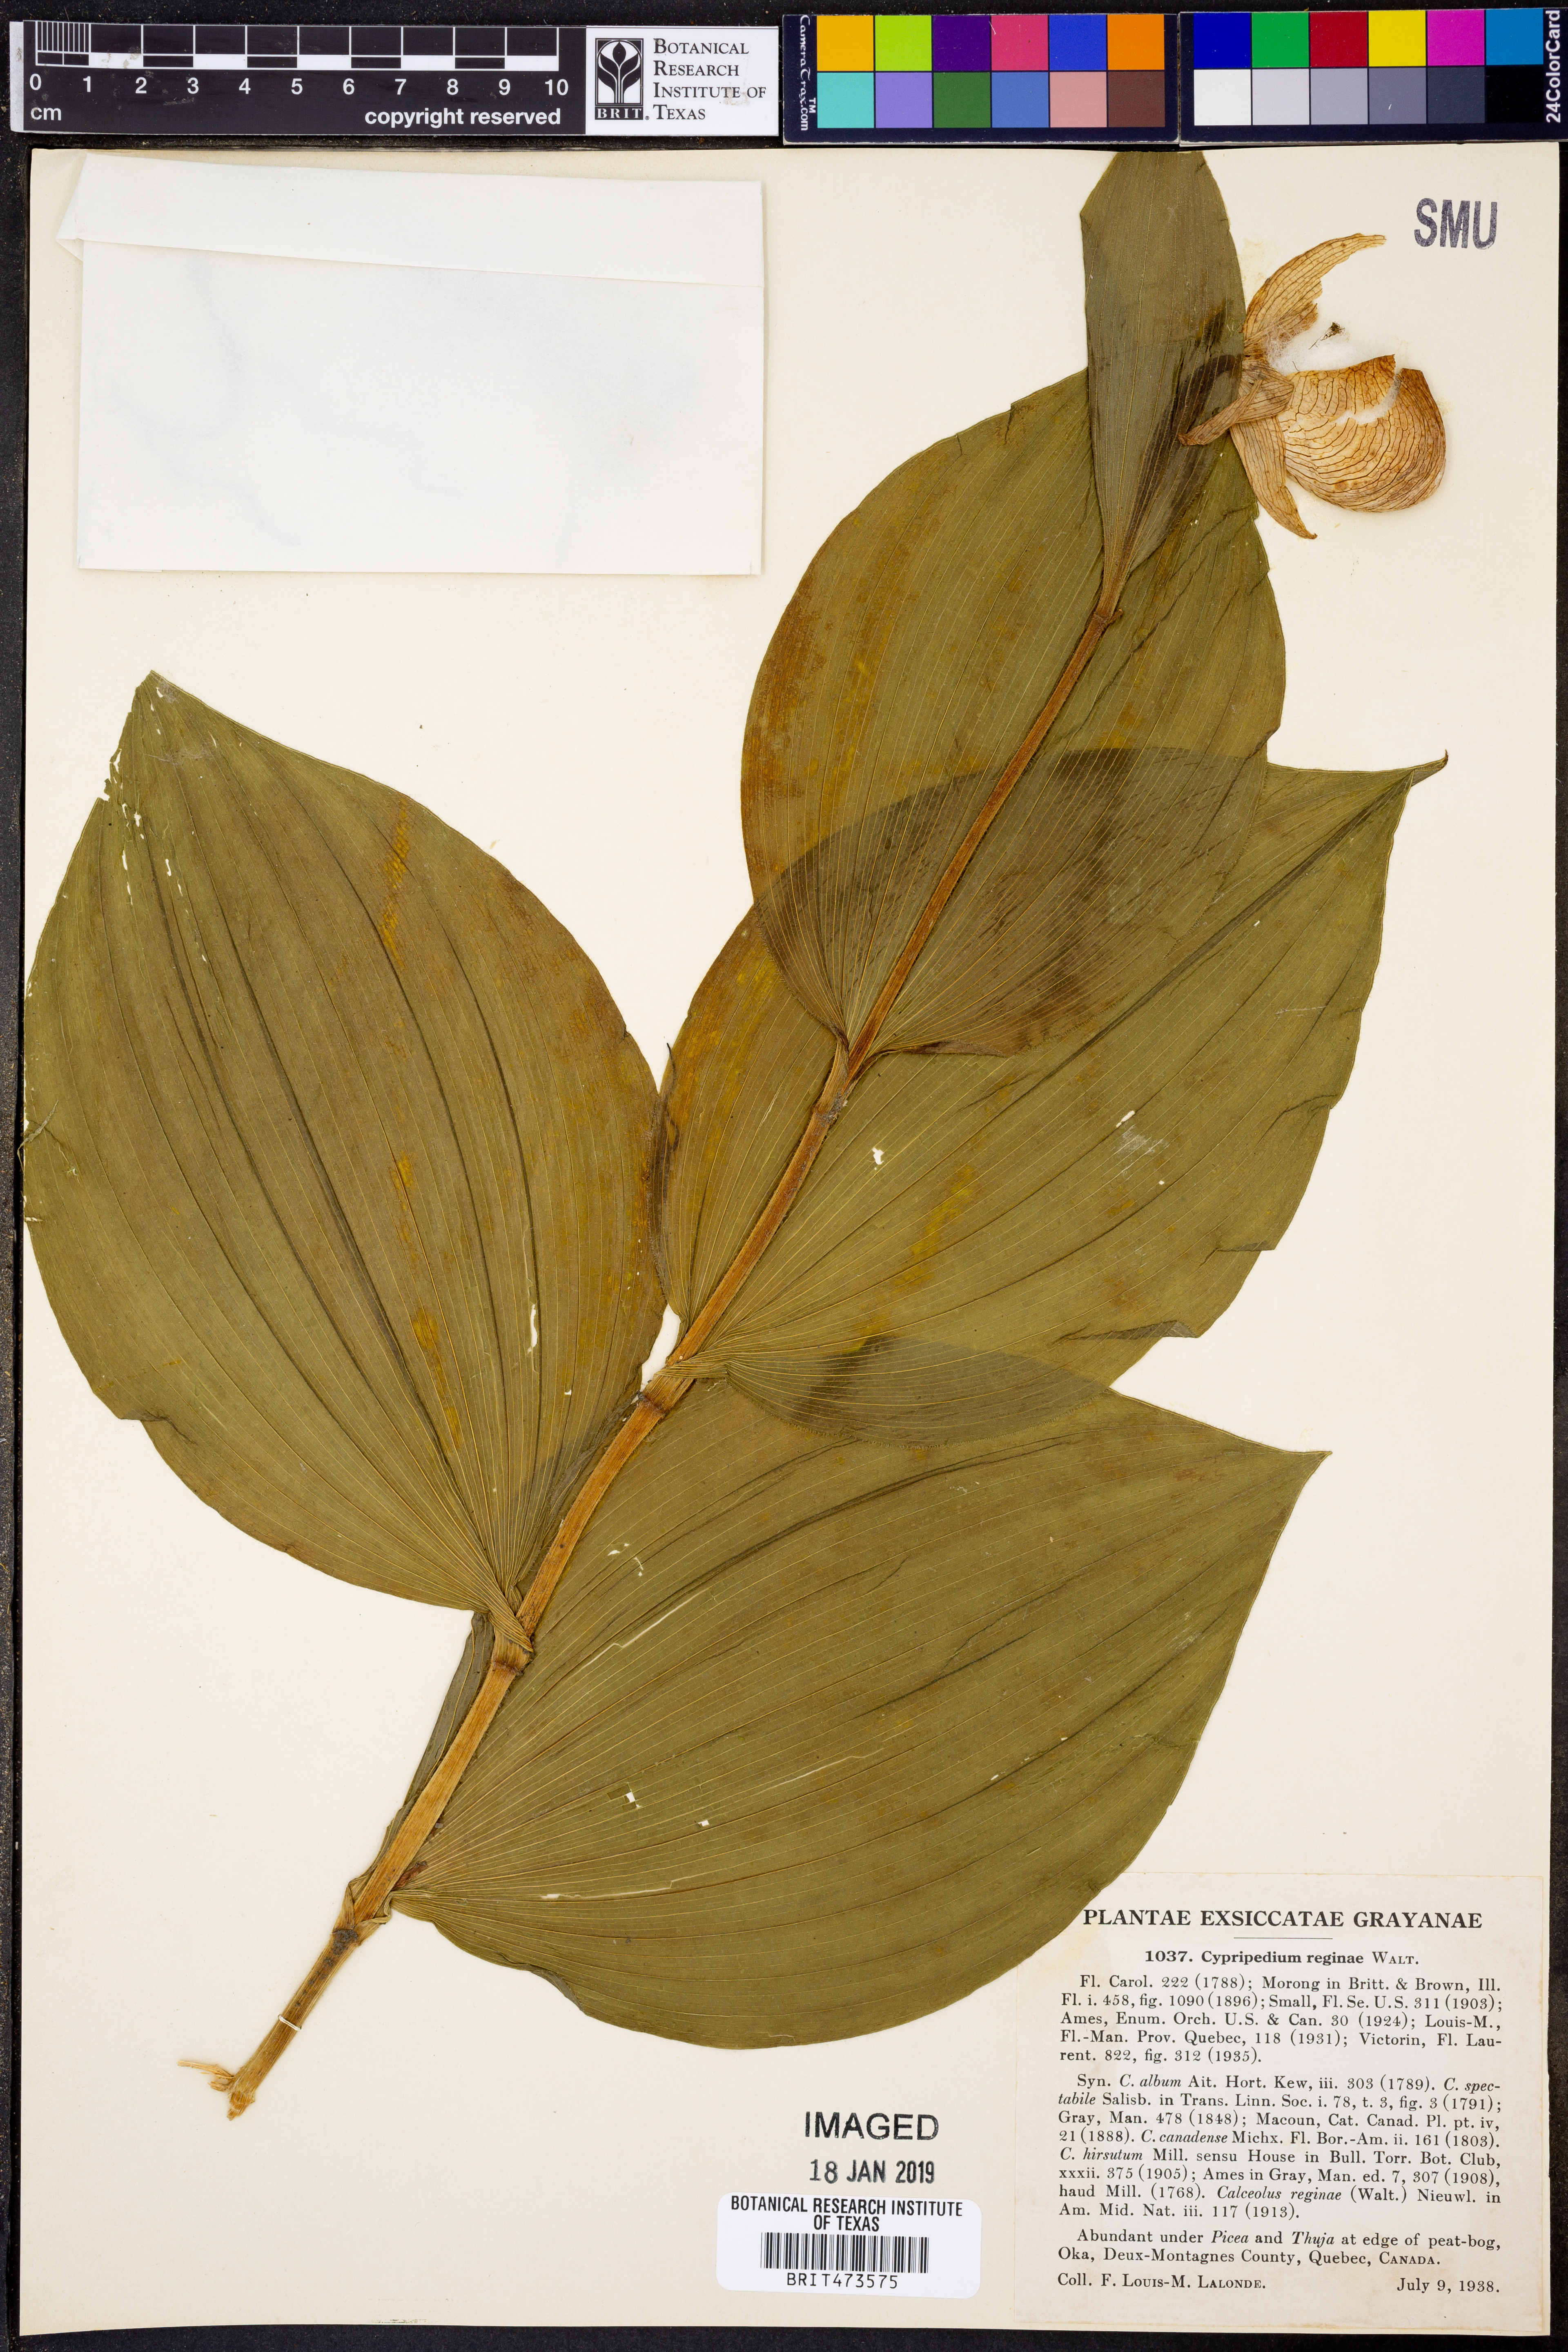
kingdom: Plantae
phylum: Tracheophyta
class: Liliopsida
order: Asparagales
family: Orchidaceae
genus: Cypripedium
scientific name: Cypripedium reginae
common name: Queen lady's-slipper
